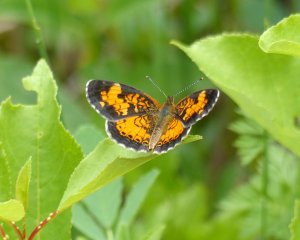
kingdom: Animalia
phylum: Arthropoda
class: Insecta
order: Lepidoptera
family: Nymphalidae
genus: Phyciodes
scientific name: Phyciodes tharos
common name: Northern Crescent
